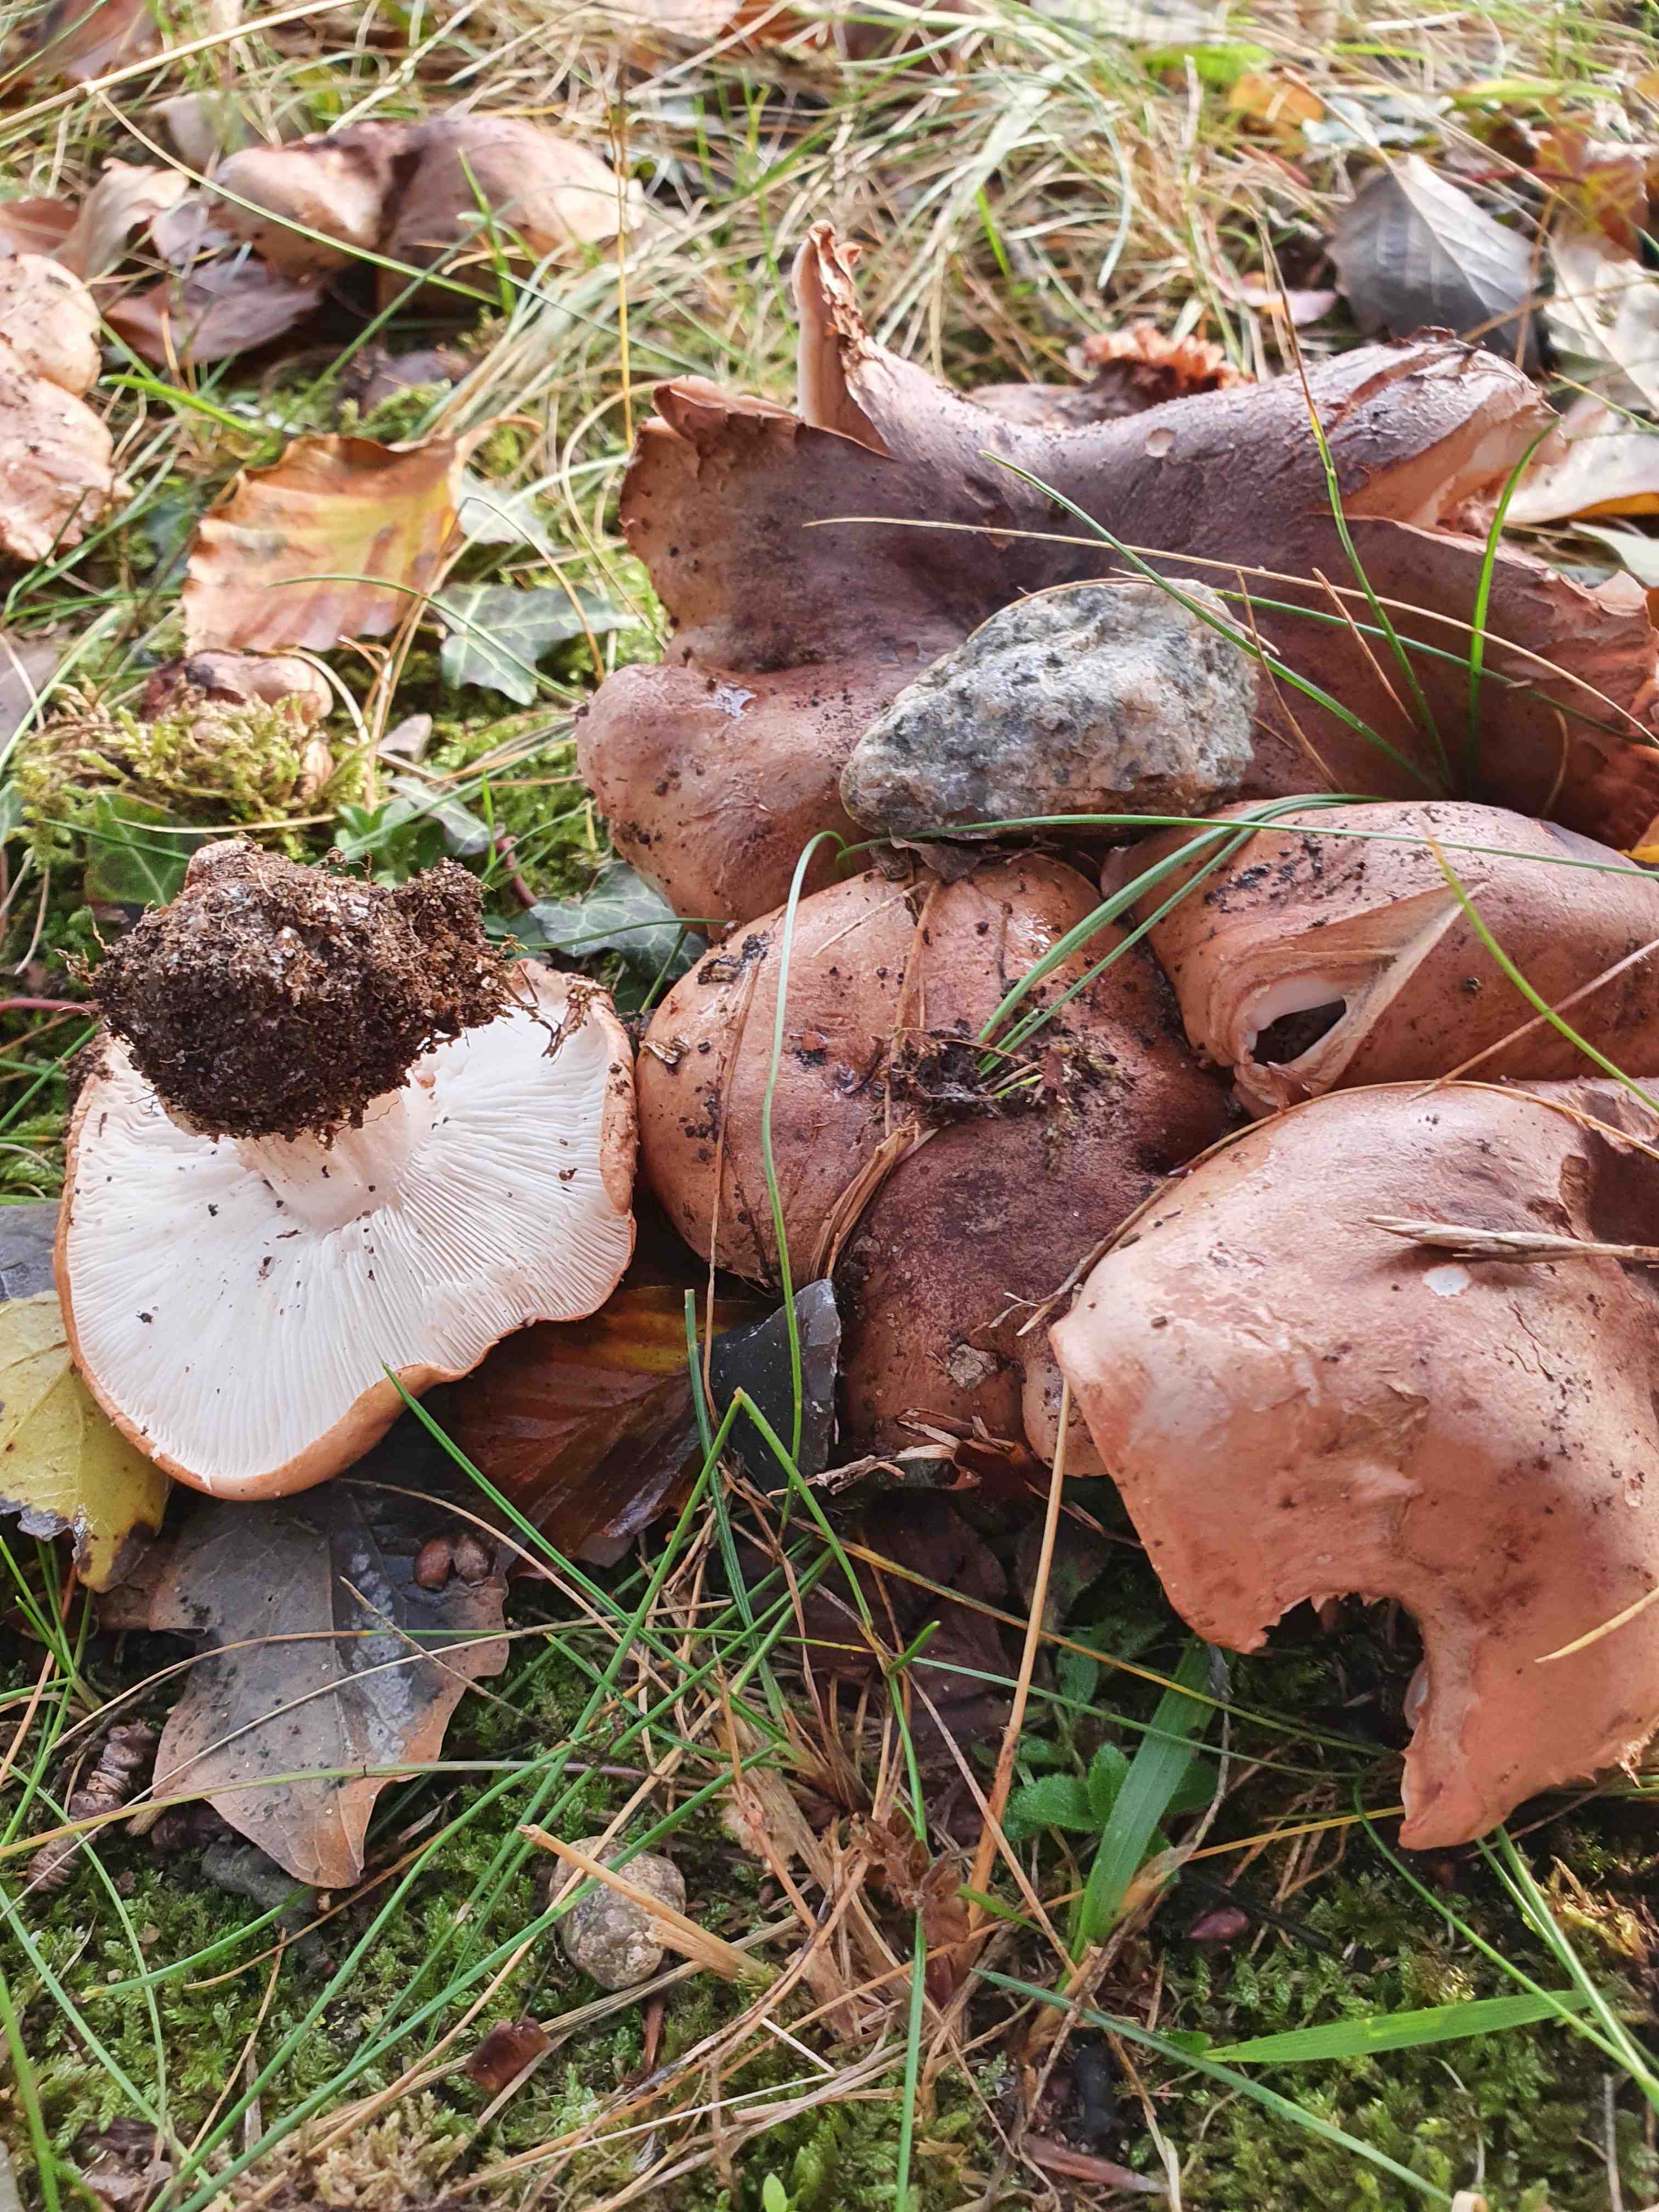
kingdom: Fungi
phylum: Basidiomycota
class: Agaricomycetes
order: Agaricales
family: Entolomataceae
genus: Clitopilus
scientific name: Clitopilus geminus
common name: kødfarvet troldhat
